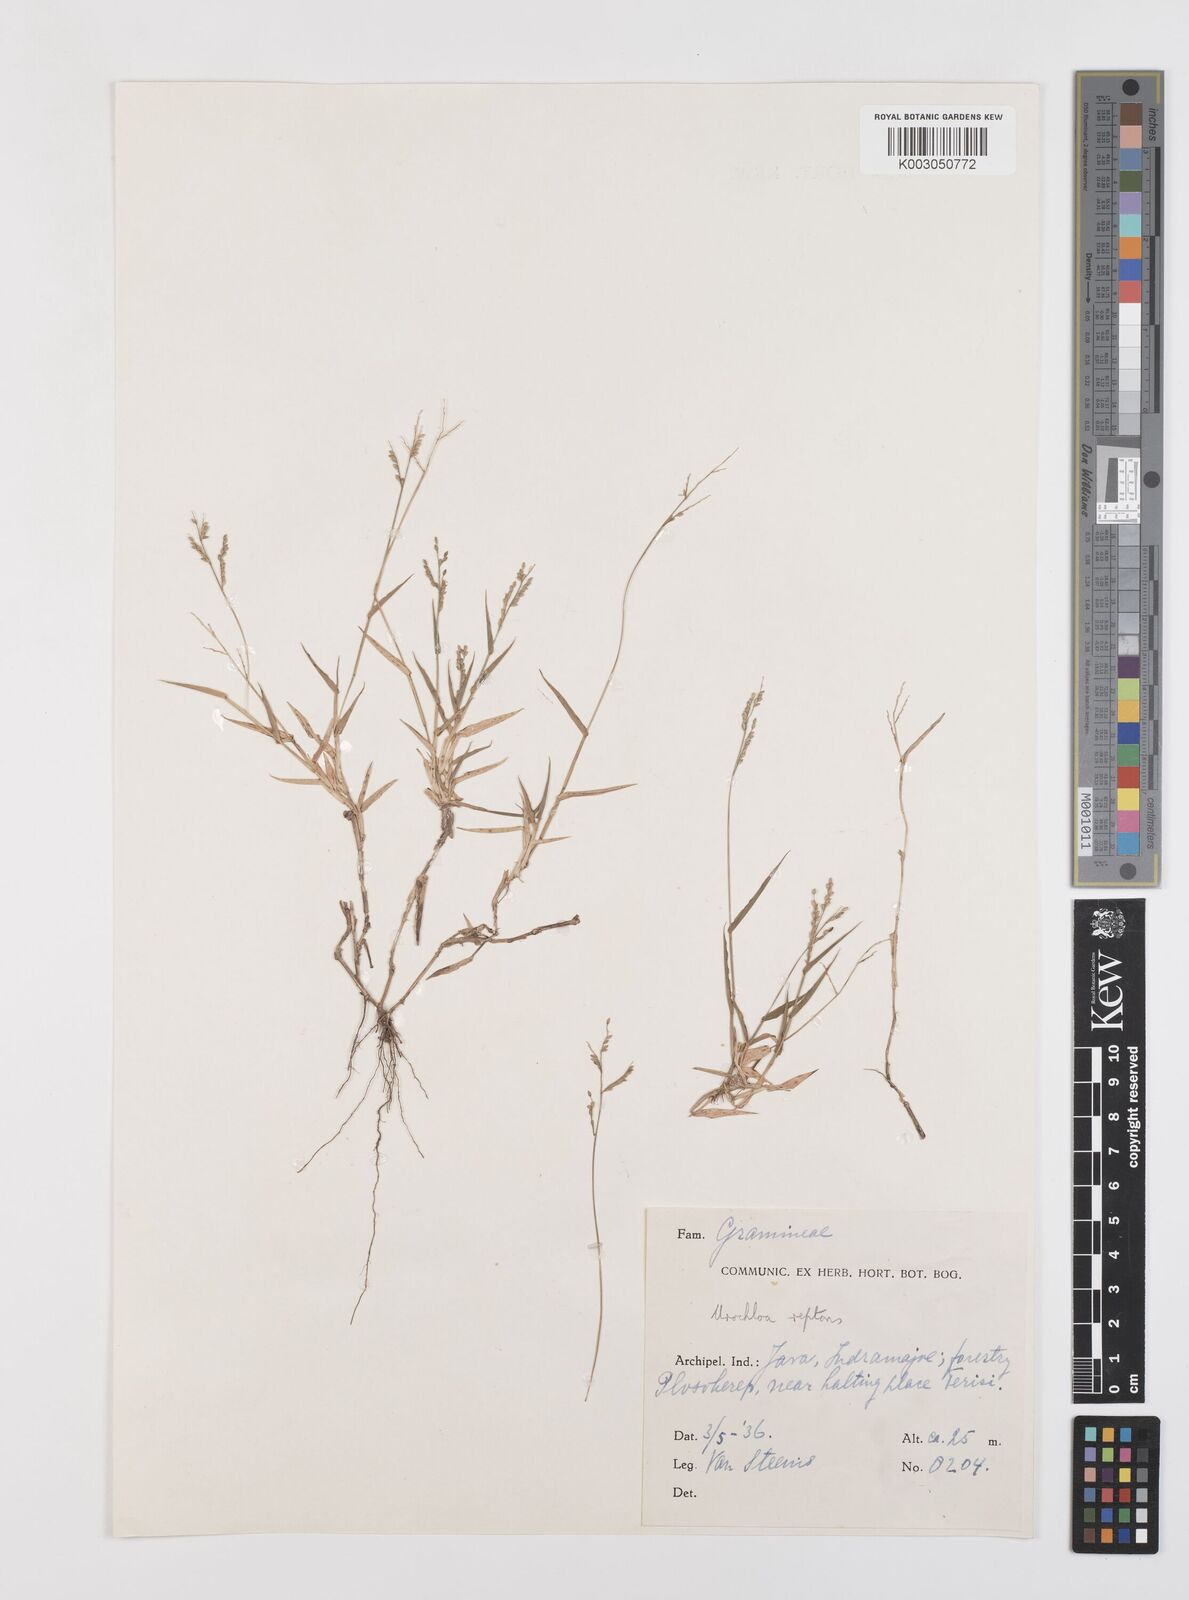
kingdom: Plantae
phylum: Tracheophyta
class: Liliopsida
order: Poales
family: Poaceae
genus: Urochloa
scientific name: Urochloa reptans
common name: Sprawling signalgrass
